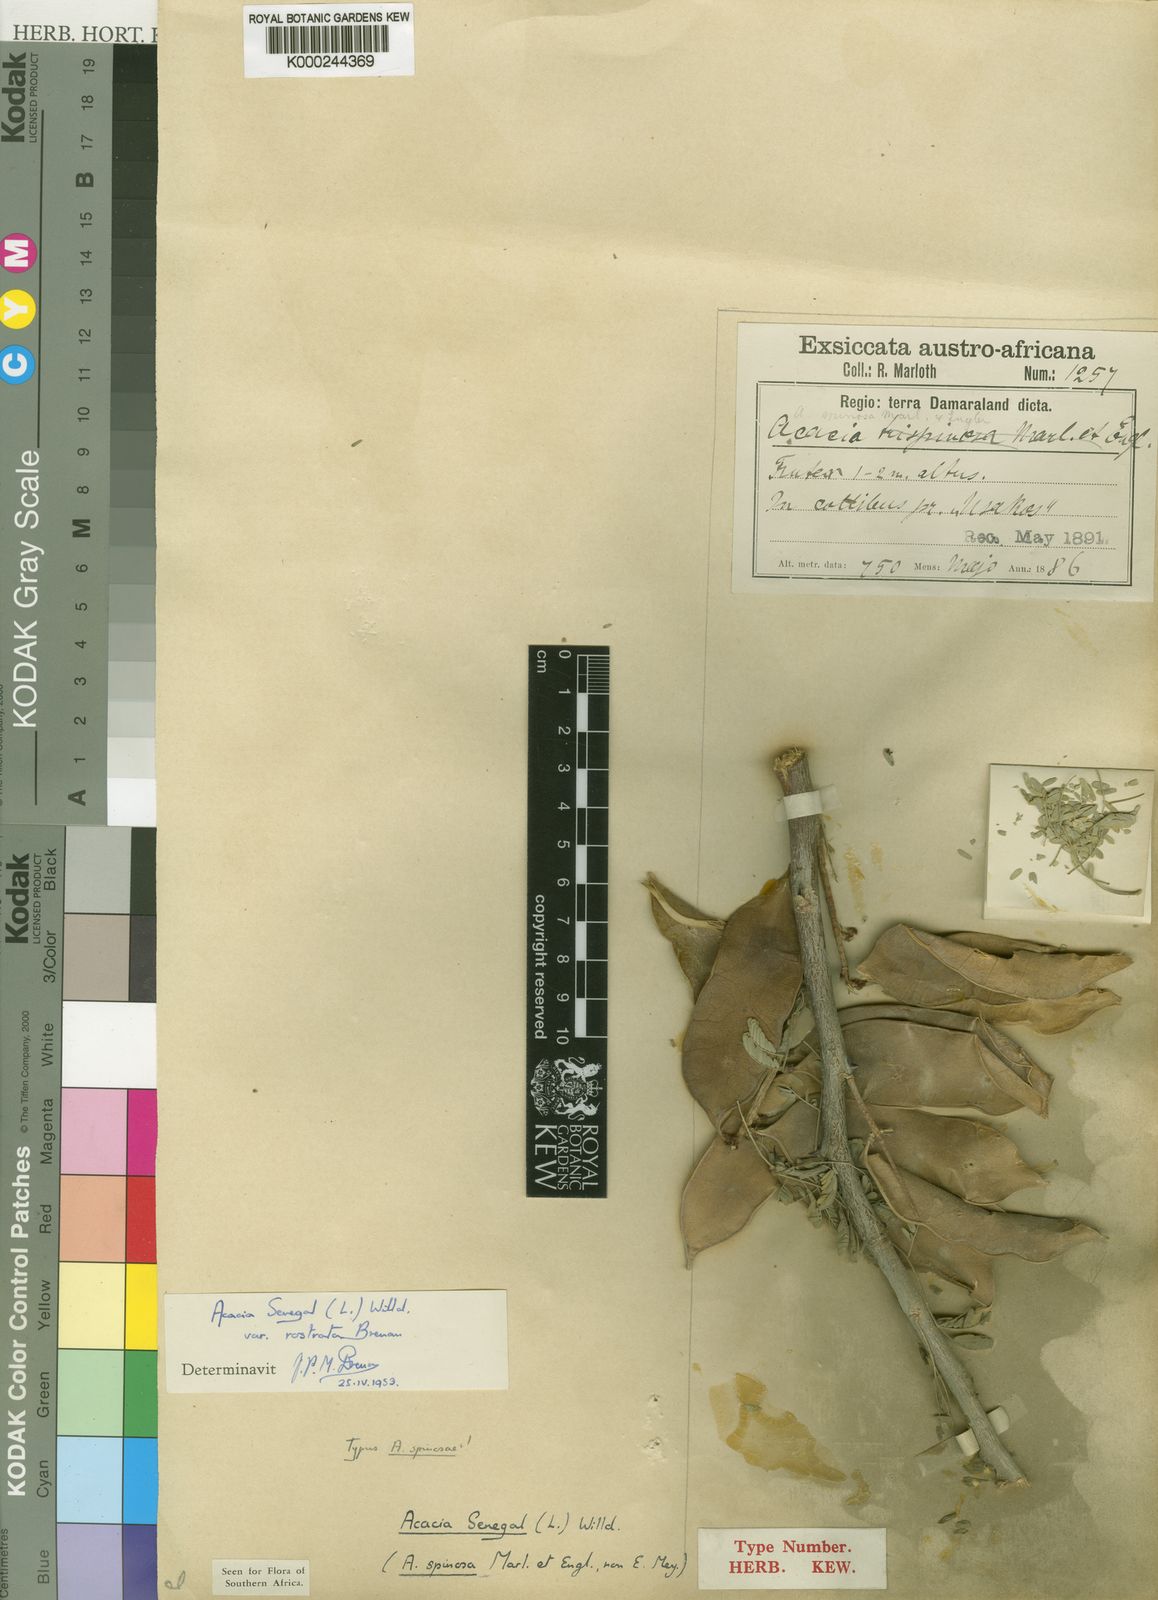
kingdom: Plantae
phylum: Tracheophyta
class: Magnoliopsida
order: Fabales
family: Fabaceae
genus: Senegalia
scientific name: Senegalia senegal
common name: Senegal-gum
